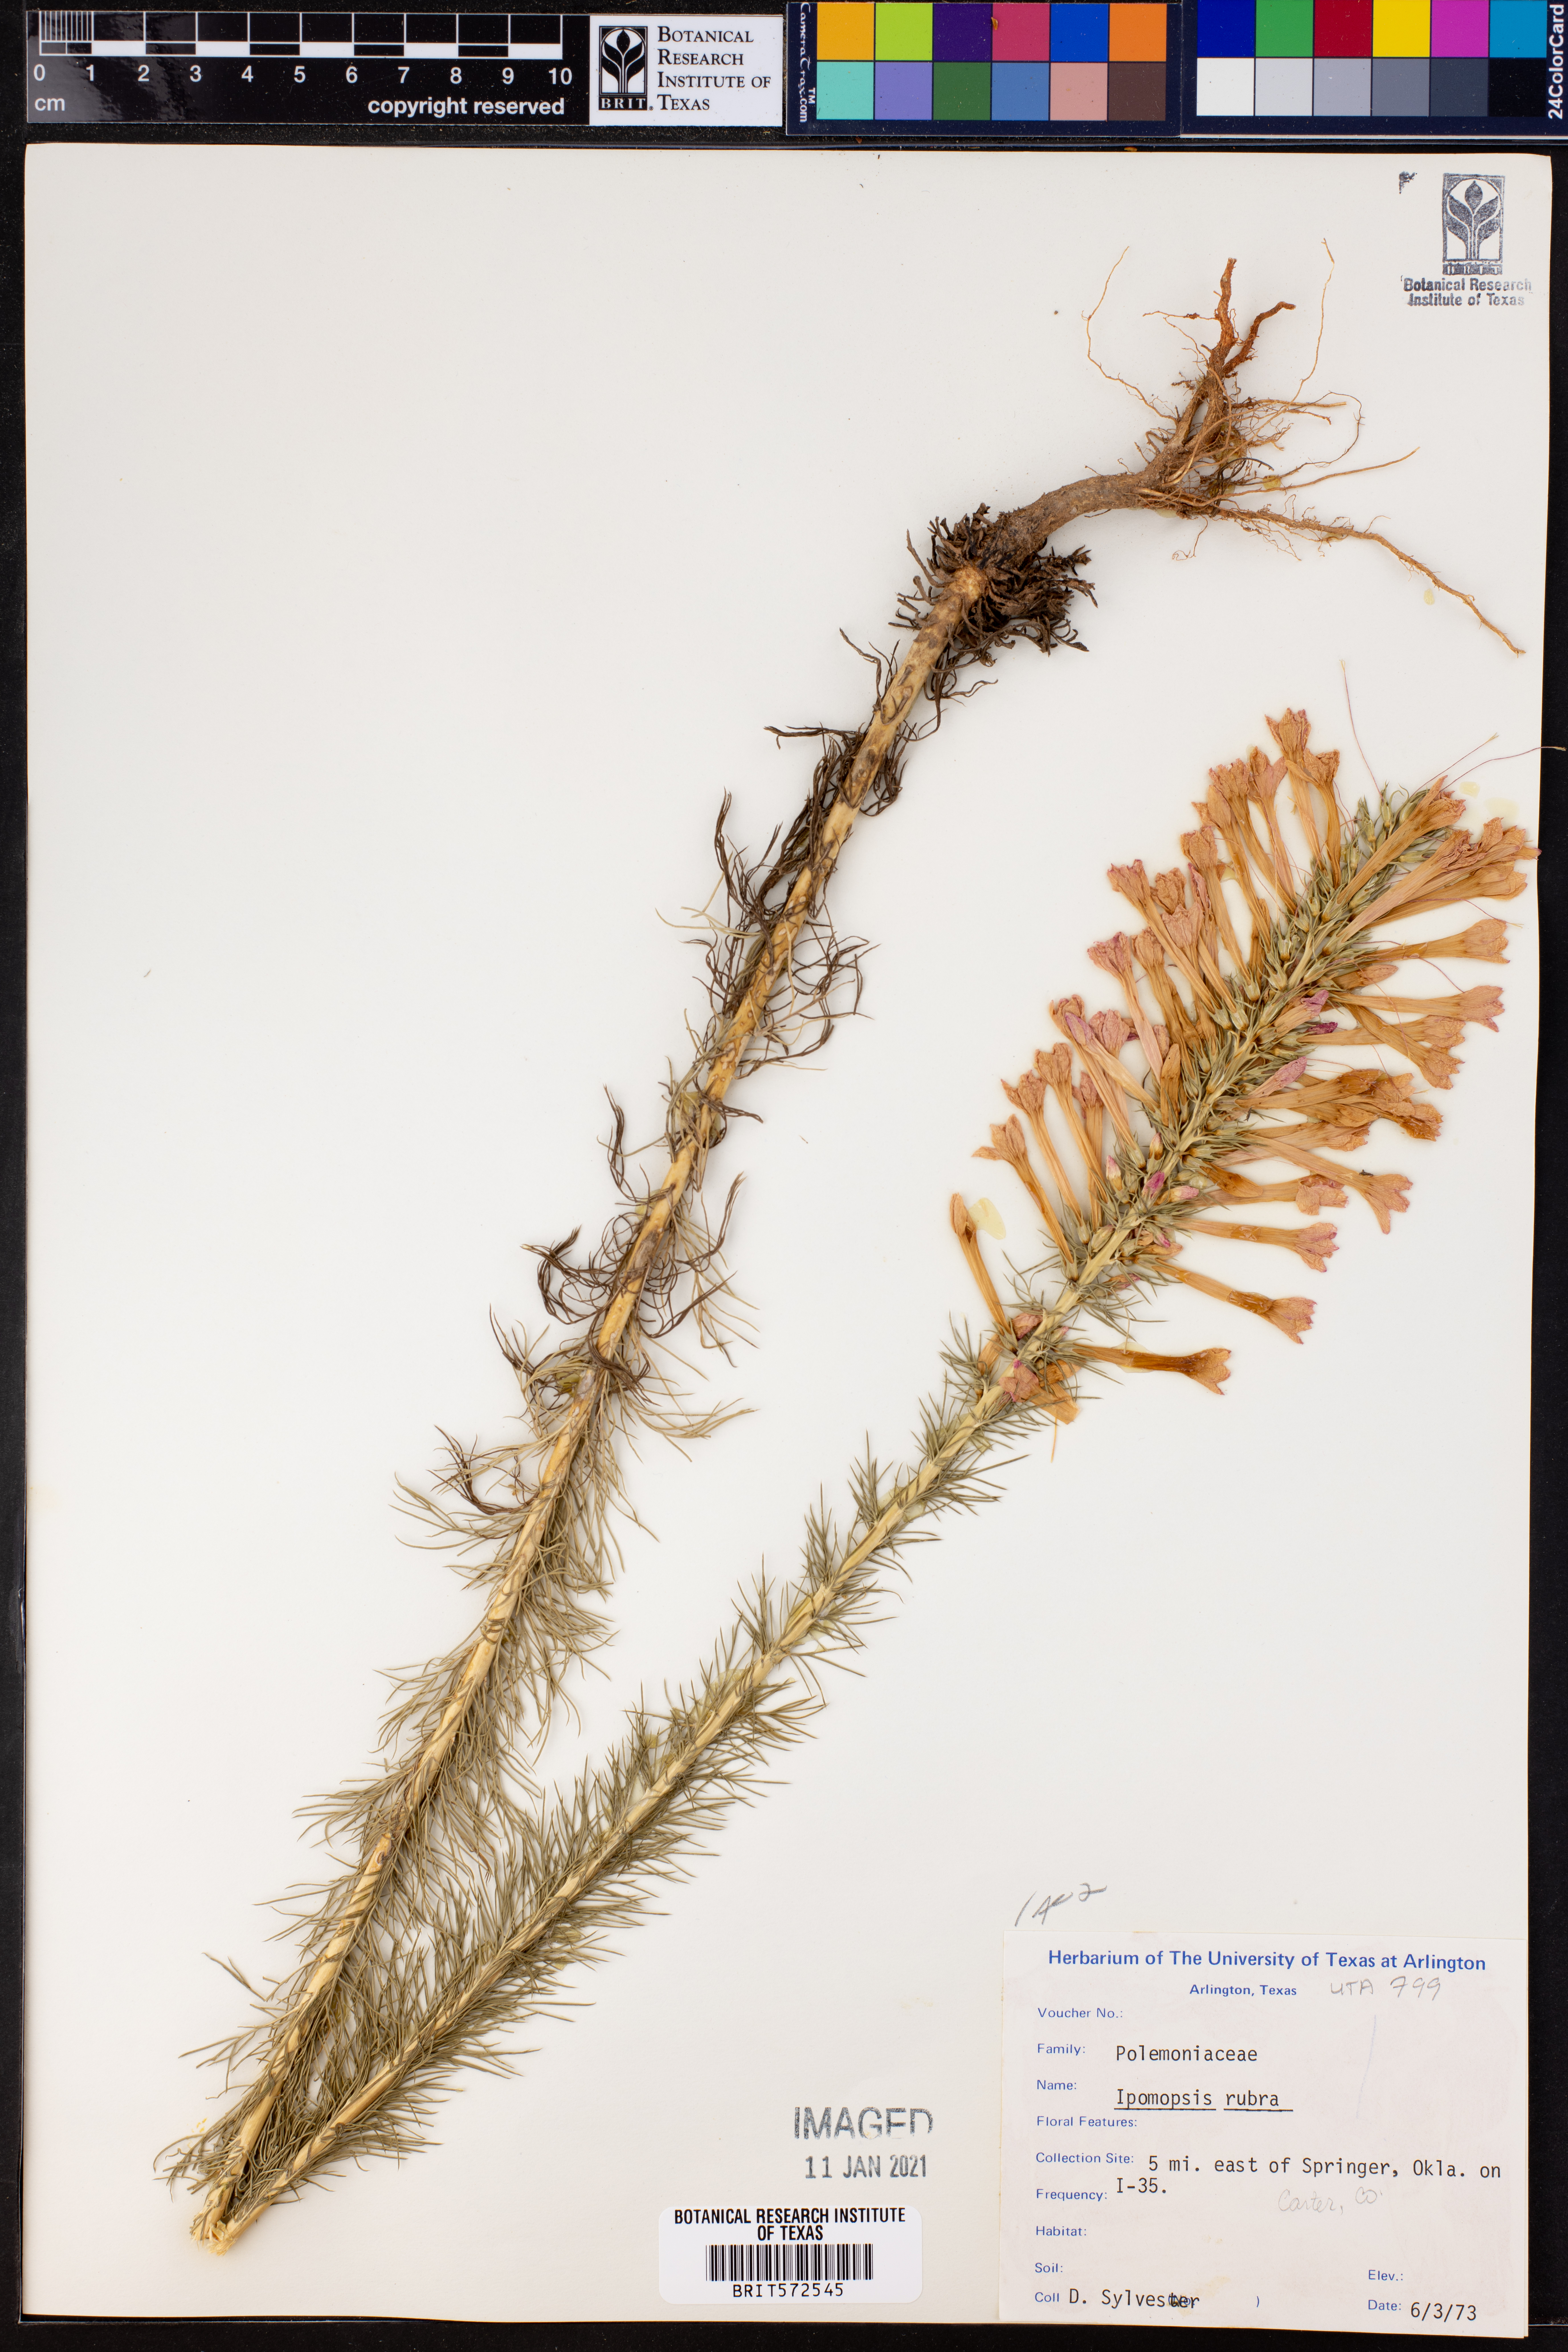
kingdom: Plantae
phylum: Tracheophyta
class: Magnoliopsida
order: Ericales
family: Polemoniaceae
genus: Ipomopsis
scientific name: Ipomopsis rubra
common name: Skyrocket
